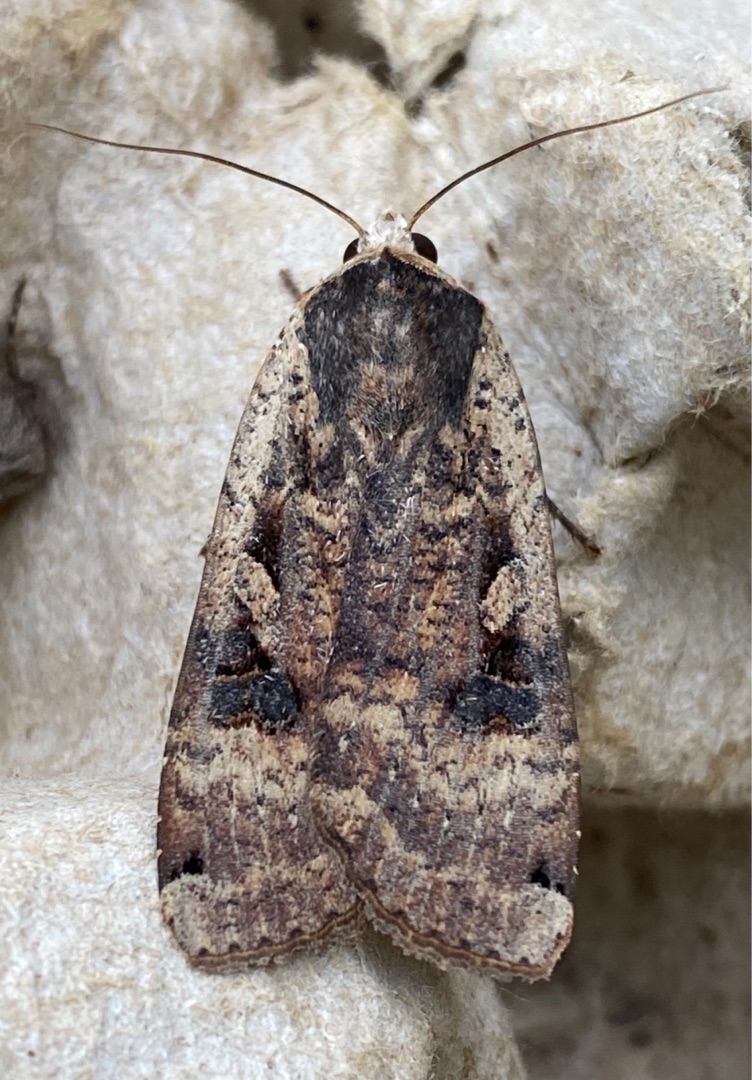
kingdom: Animalia
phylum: Arthropoda
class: Insecta
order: Lepidoptera
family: Noctuidae
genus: Noctua
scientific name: Noctua pronuba
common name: Stor smutugle
